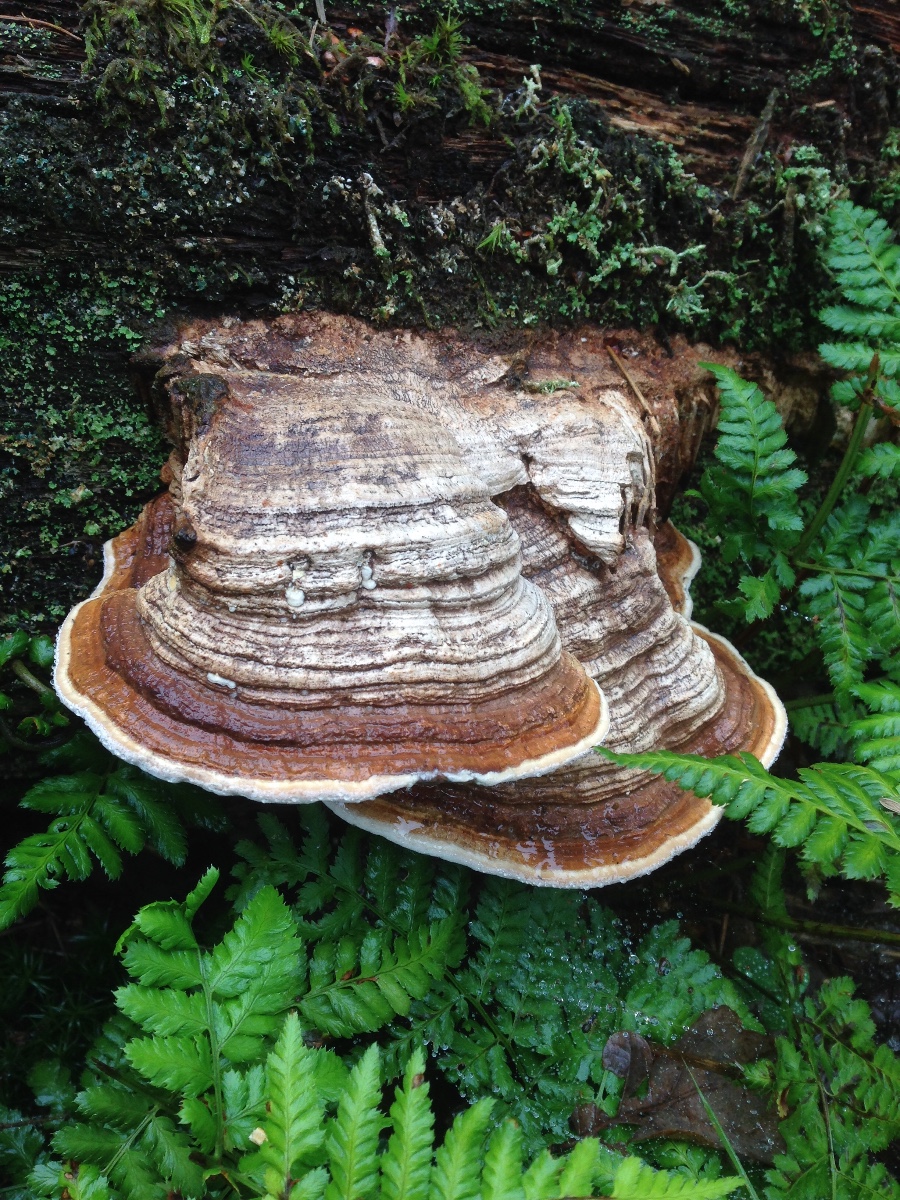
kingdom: Fungi
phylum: Basidiomycota
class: Agaricomycetes
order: Polyporales
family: Fomitopsidaceae
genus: Daedalea
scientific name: Daedalea quercina
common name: ege-labyrintsvamp
